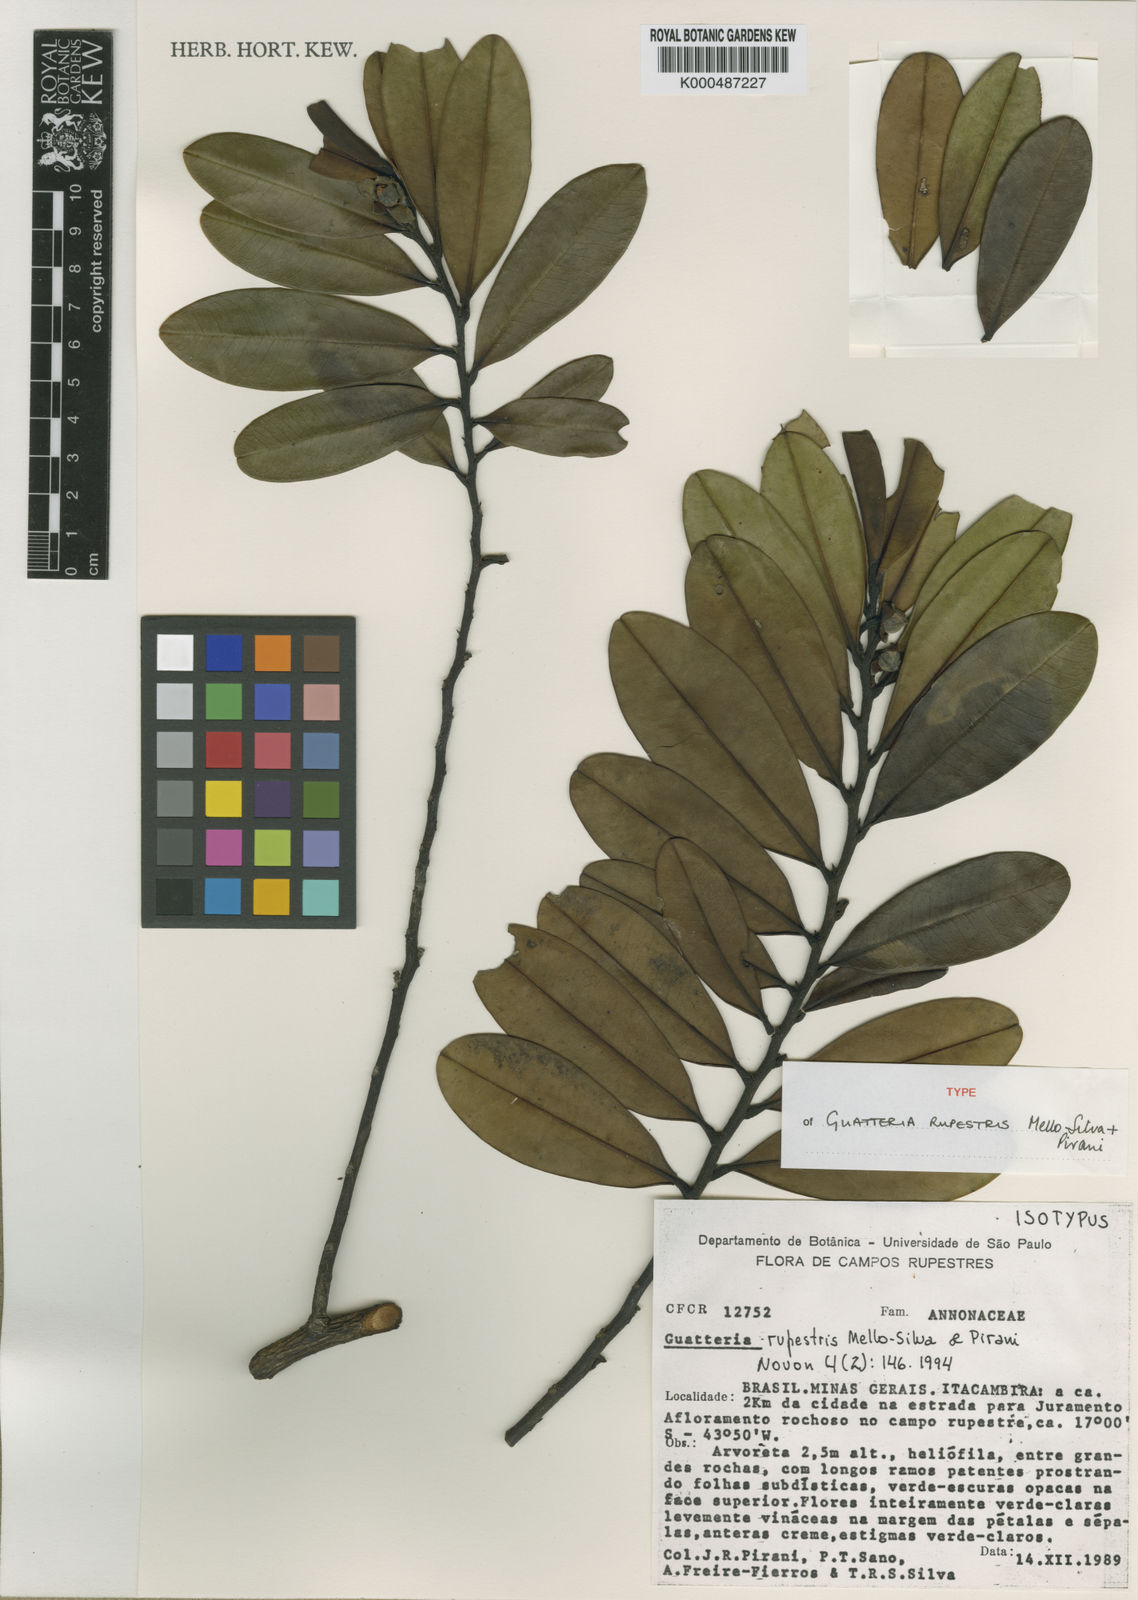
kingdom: Plantae
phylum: Tracheophyta
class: Magnoliopsida
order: Magnoliales
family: Annonaceae
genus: Guatteria
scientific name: Guatteria rupestris
